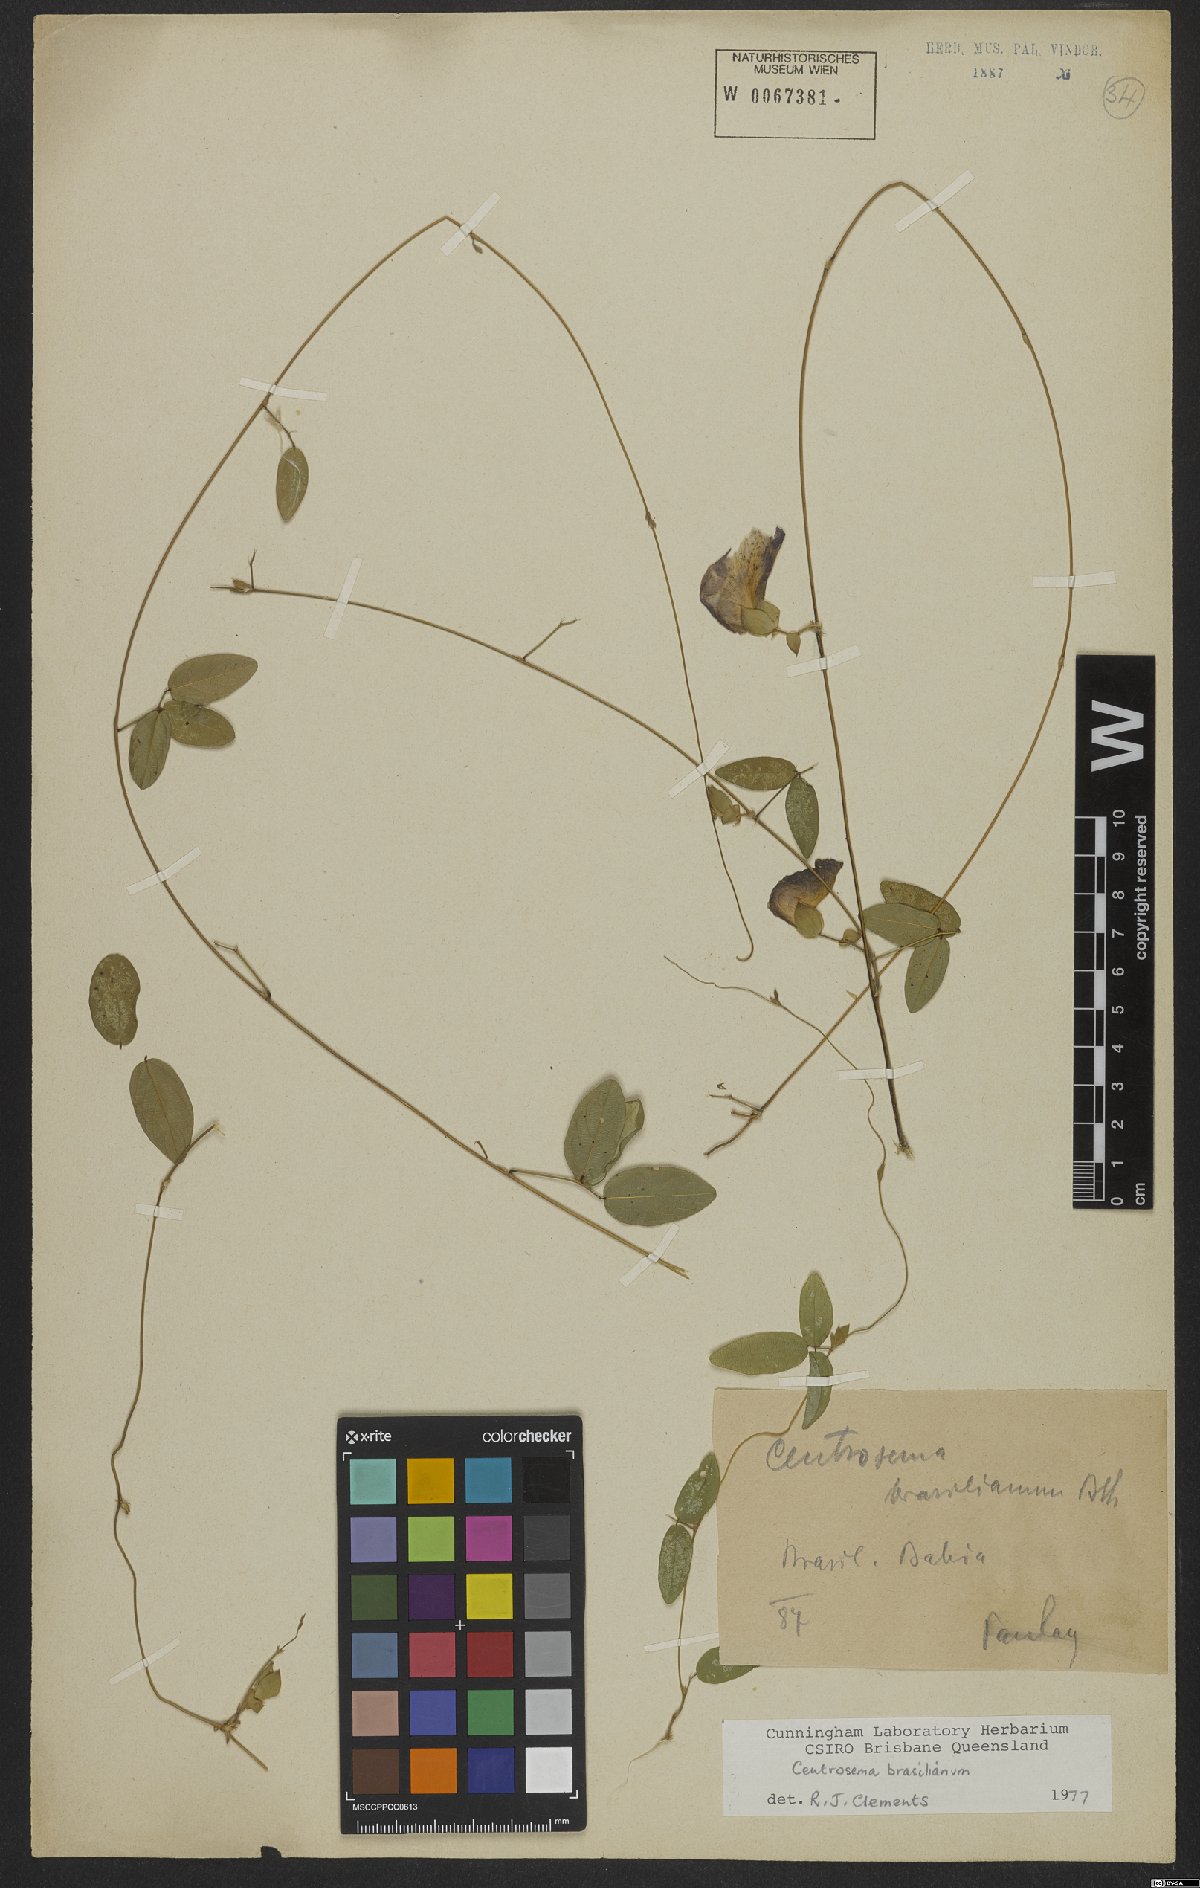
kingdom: Plantae
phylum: Tracheophyta
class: Magnoliopsida
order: Fabales
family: Fabaceae
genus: Centrosema
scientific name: Centrosema brasilianum
